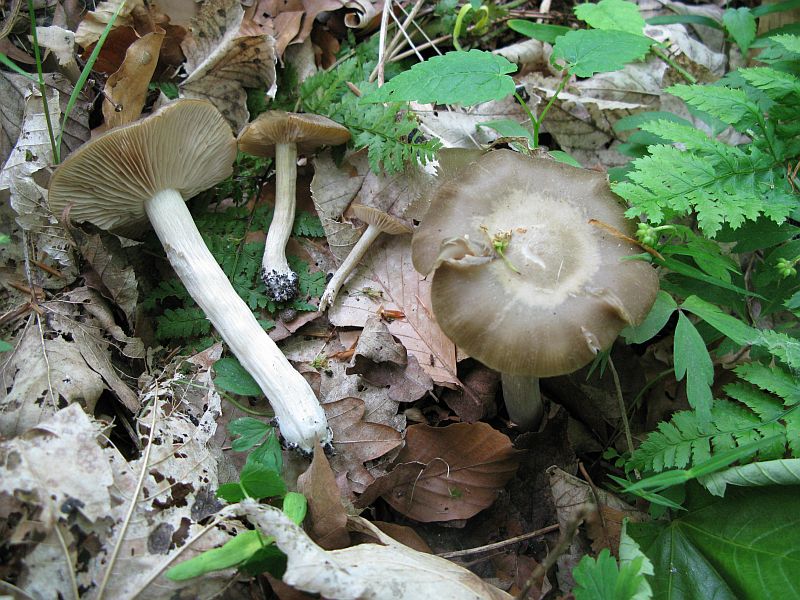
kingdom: Fungi
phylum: Basidiomycota
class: Agaricomycetes
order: Agaricales
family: Entolomataceae
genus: Entoloma
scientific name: Entoloma clypeatum
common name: flammet rødblad
